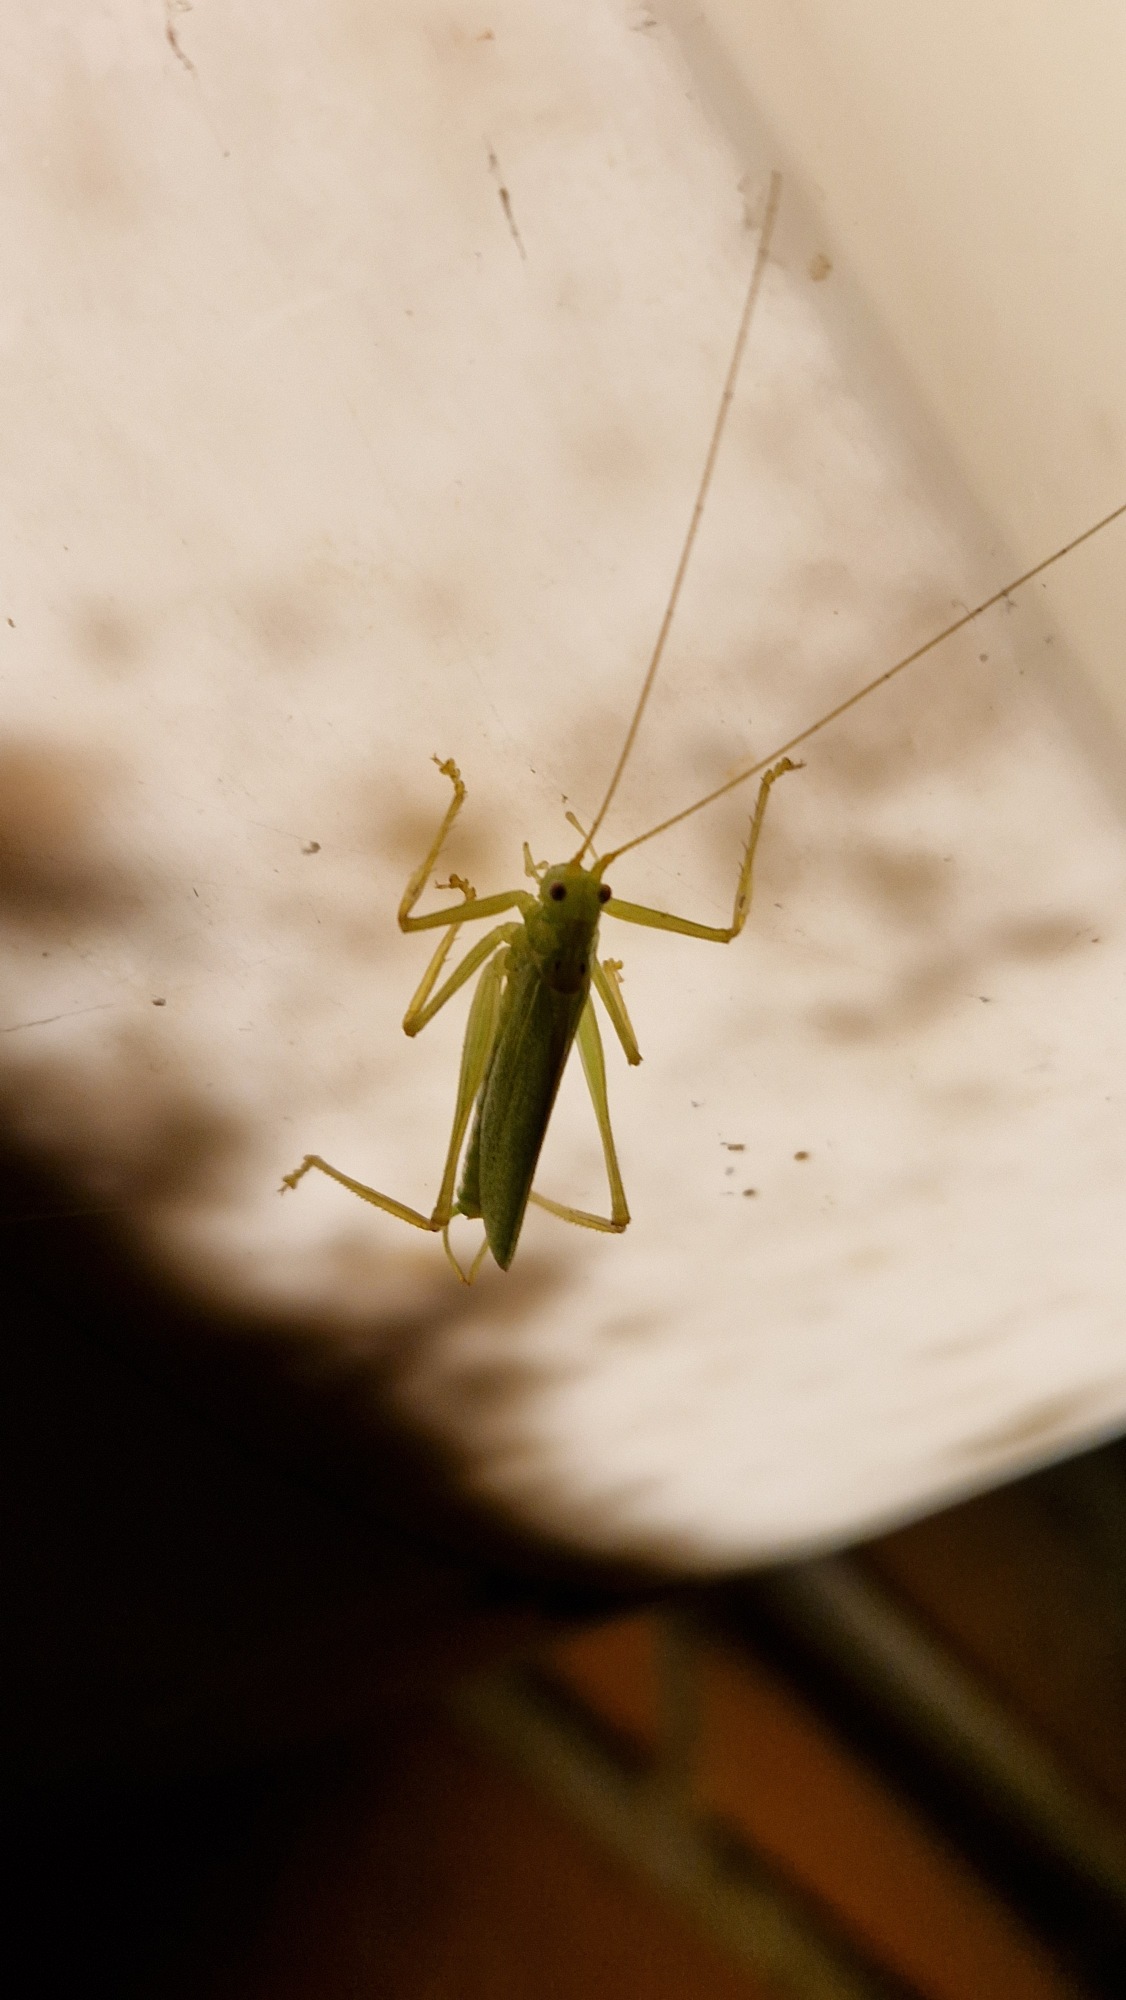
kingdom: Animalia
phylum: Arthropoda
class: Insecta
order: Orthoptera
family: Tettigoniidae
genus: Meconema
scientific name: Meconema thalassinum
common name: Egegræshoppe
